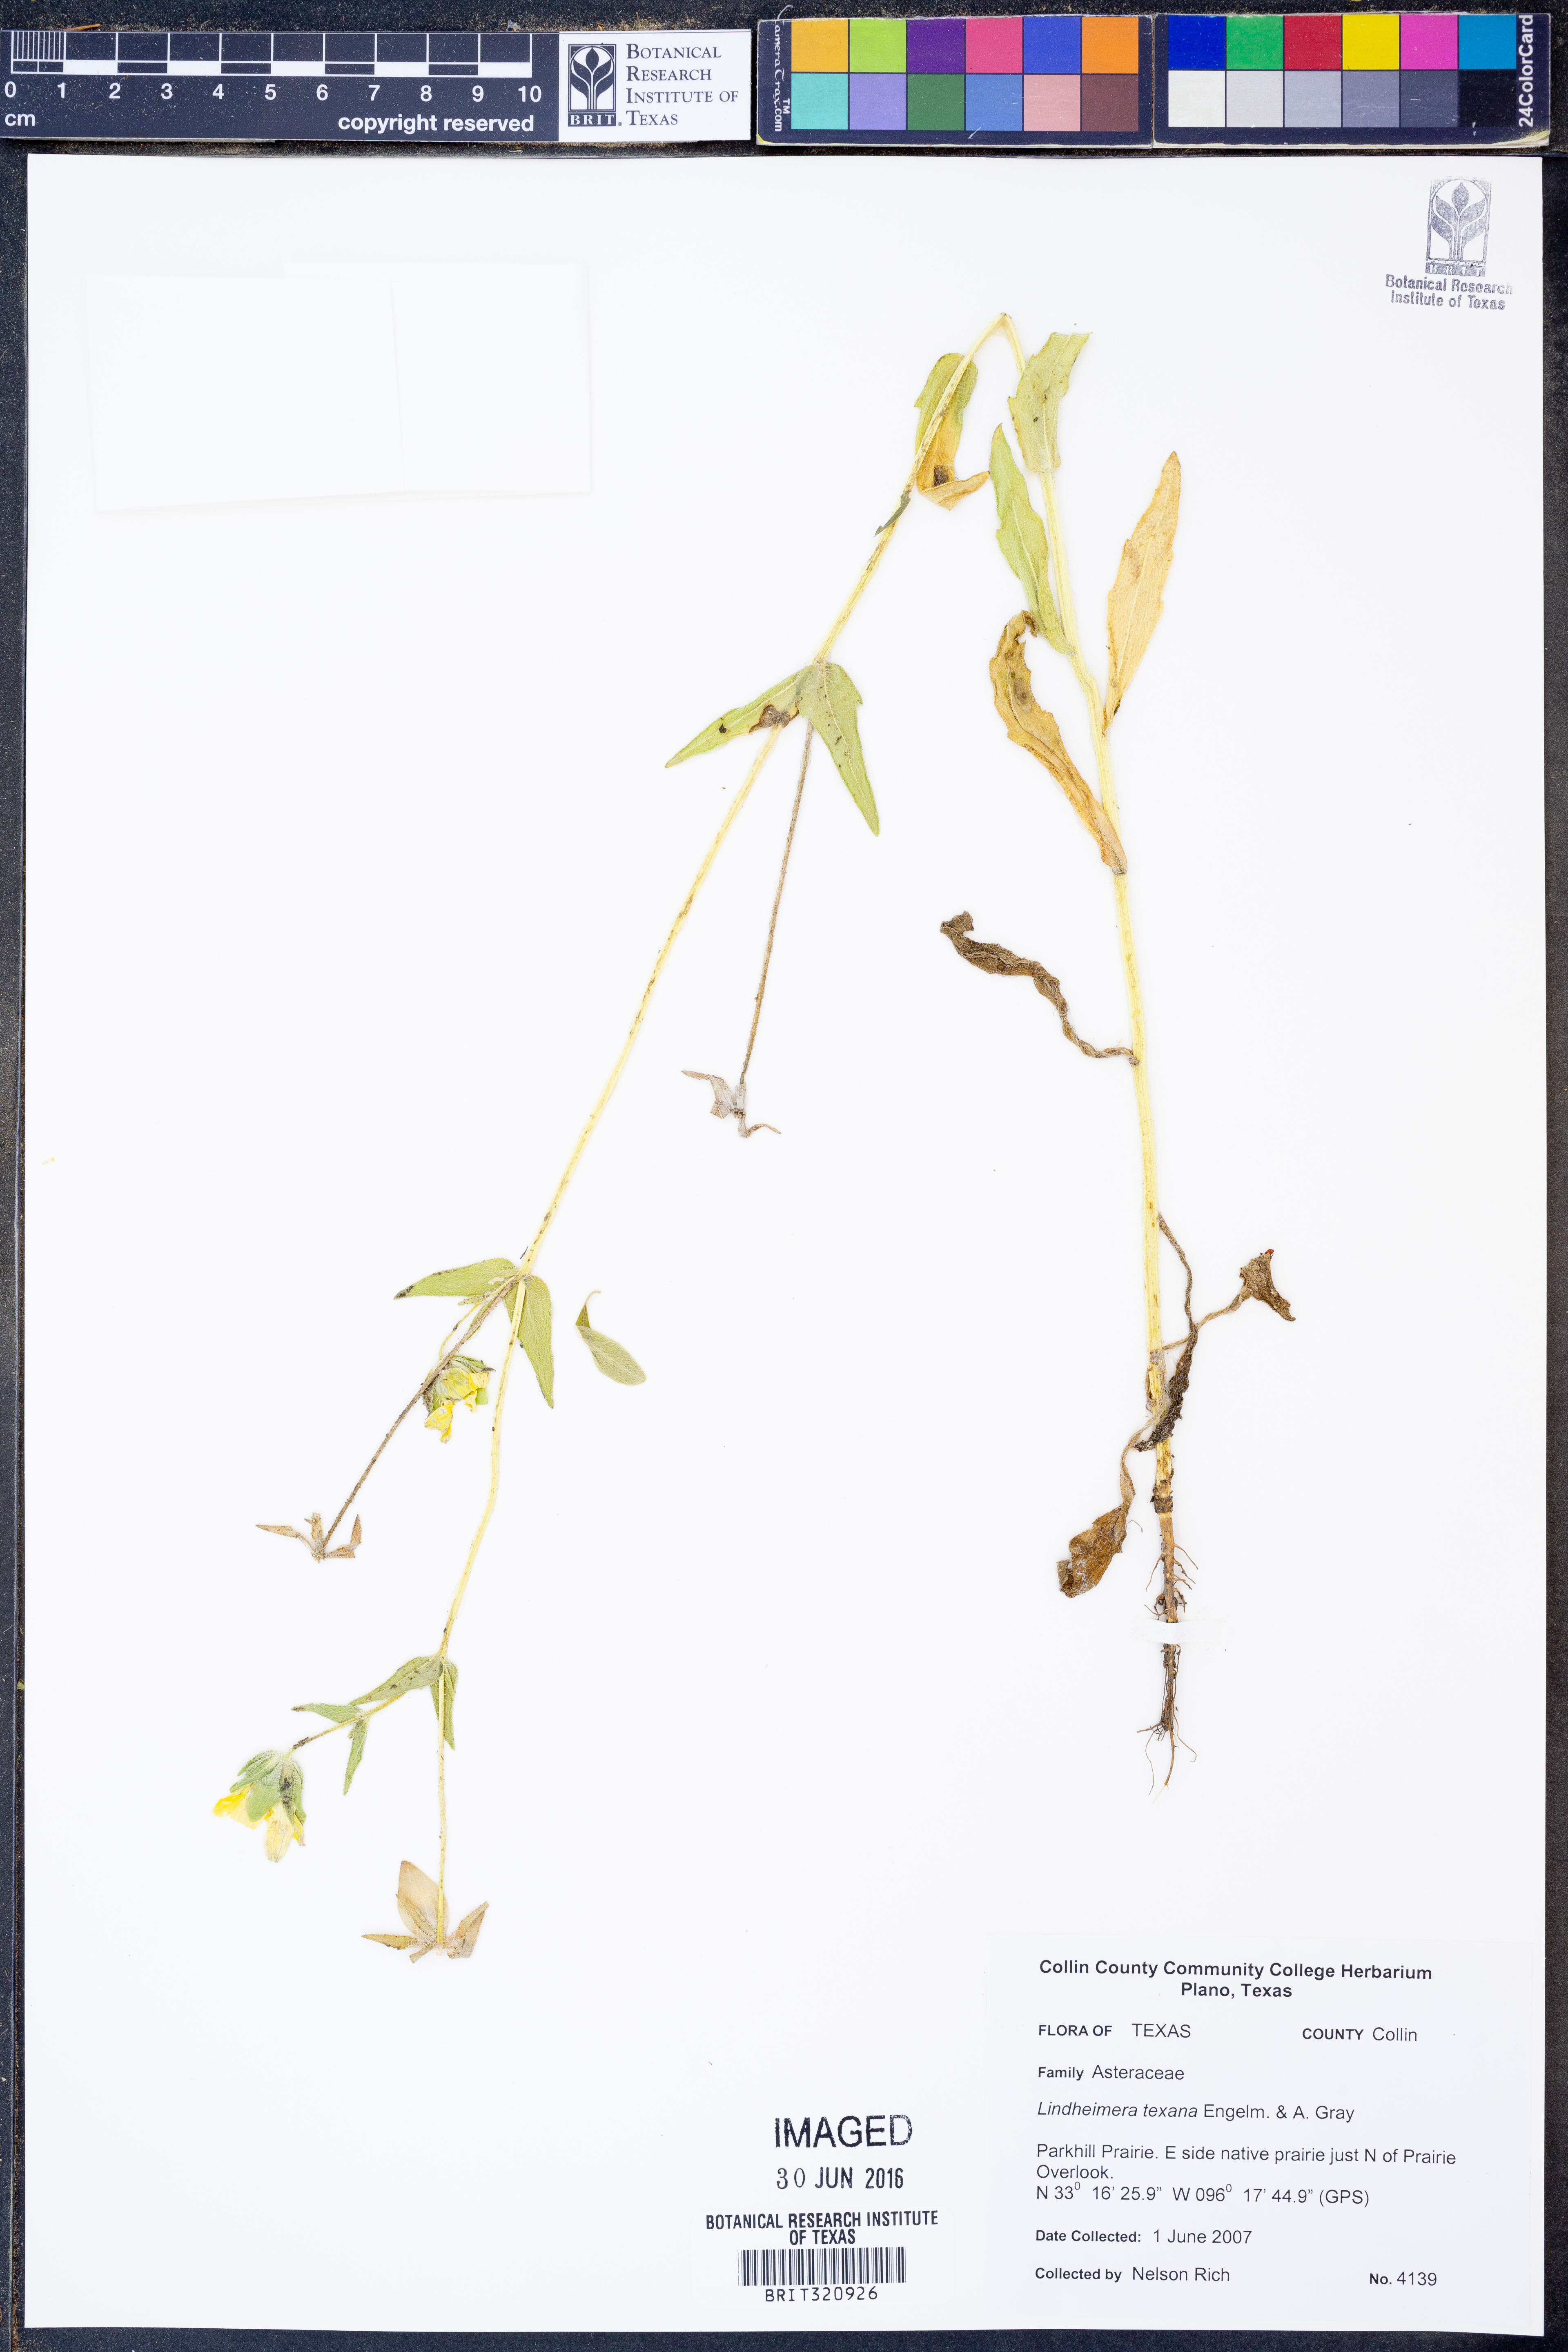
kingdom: Plantae
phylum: Tracheophyta
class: Magnoliopsida
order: Asterales
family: Asteraceae
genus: Lindheimera
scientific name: Lindheimera texana
